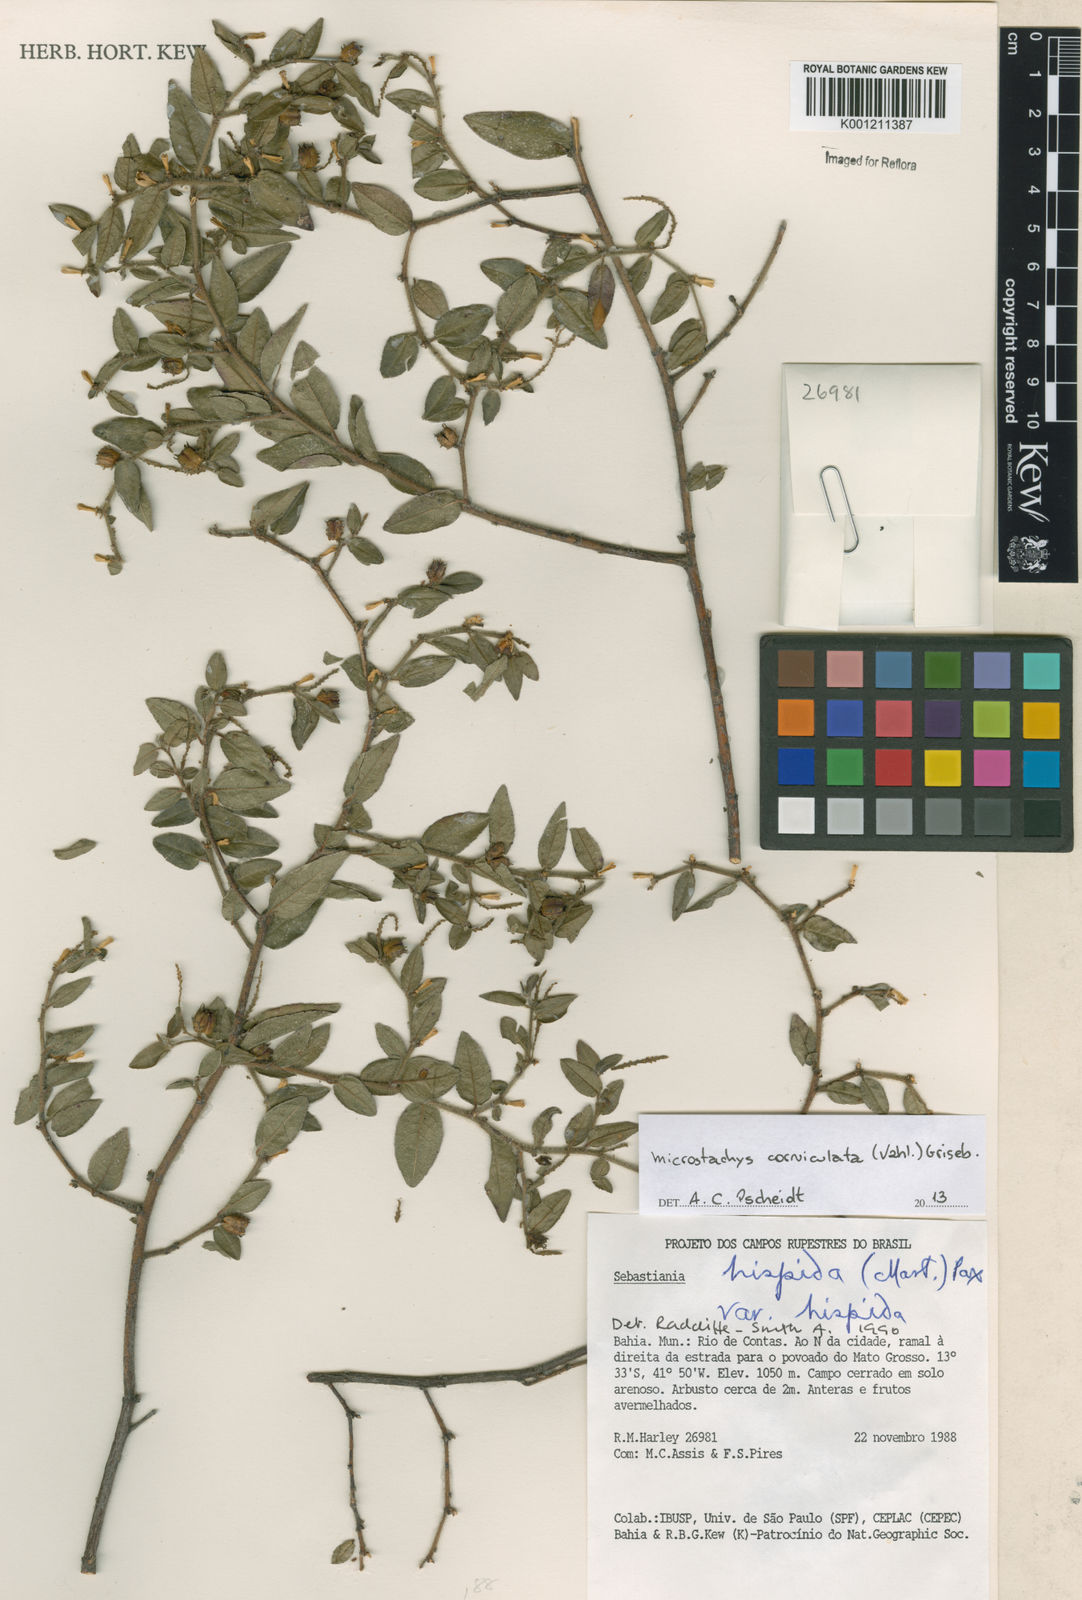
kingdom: Plantae
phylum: Tracheophyta
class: Magnoliopsida
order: Malpighiales
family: Euphorbiaceae
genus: Microstachys
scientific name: Microstachys corniculata
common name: Hato tejas
